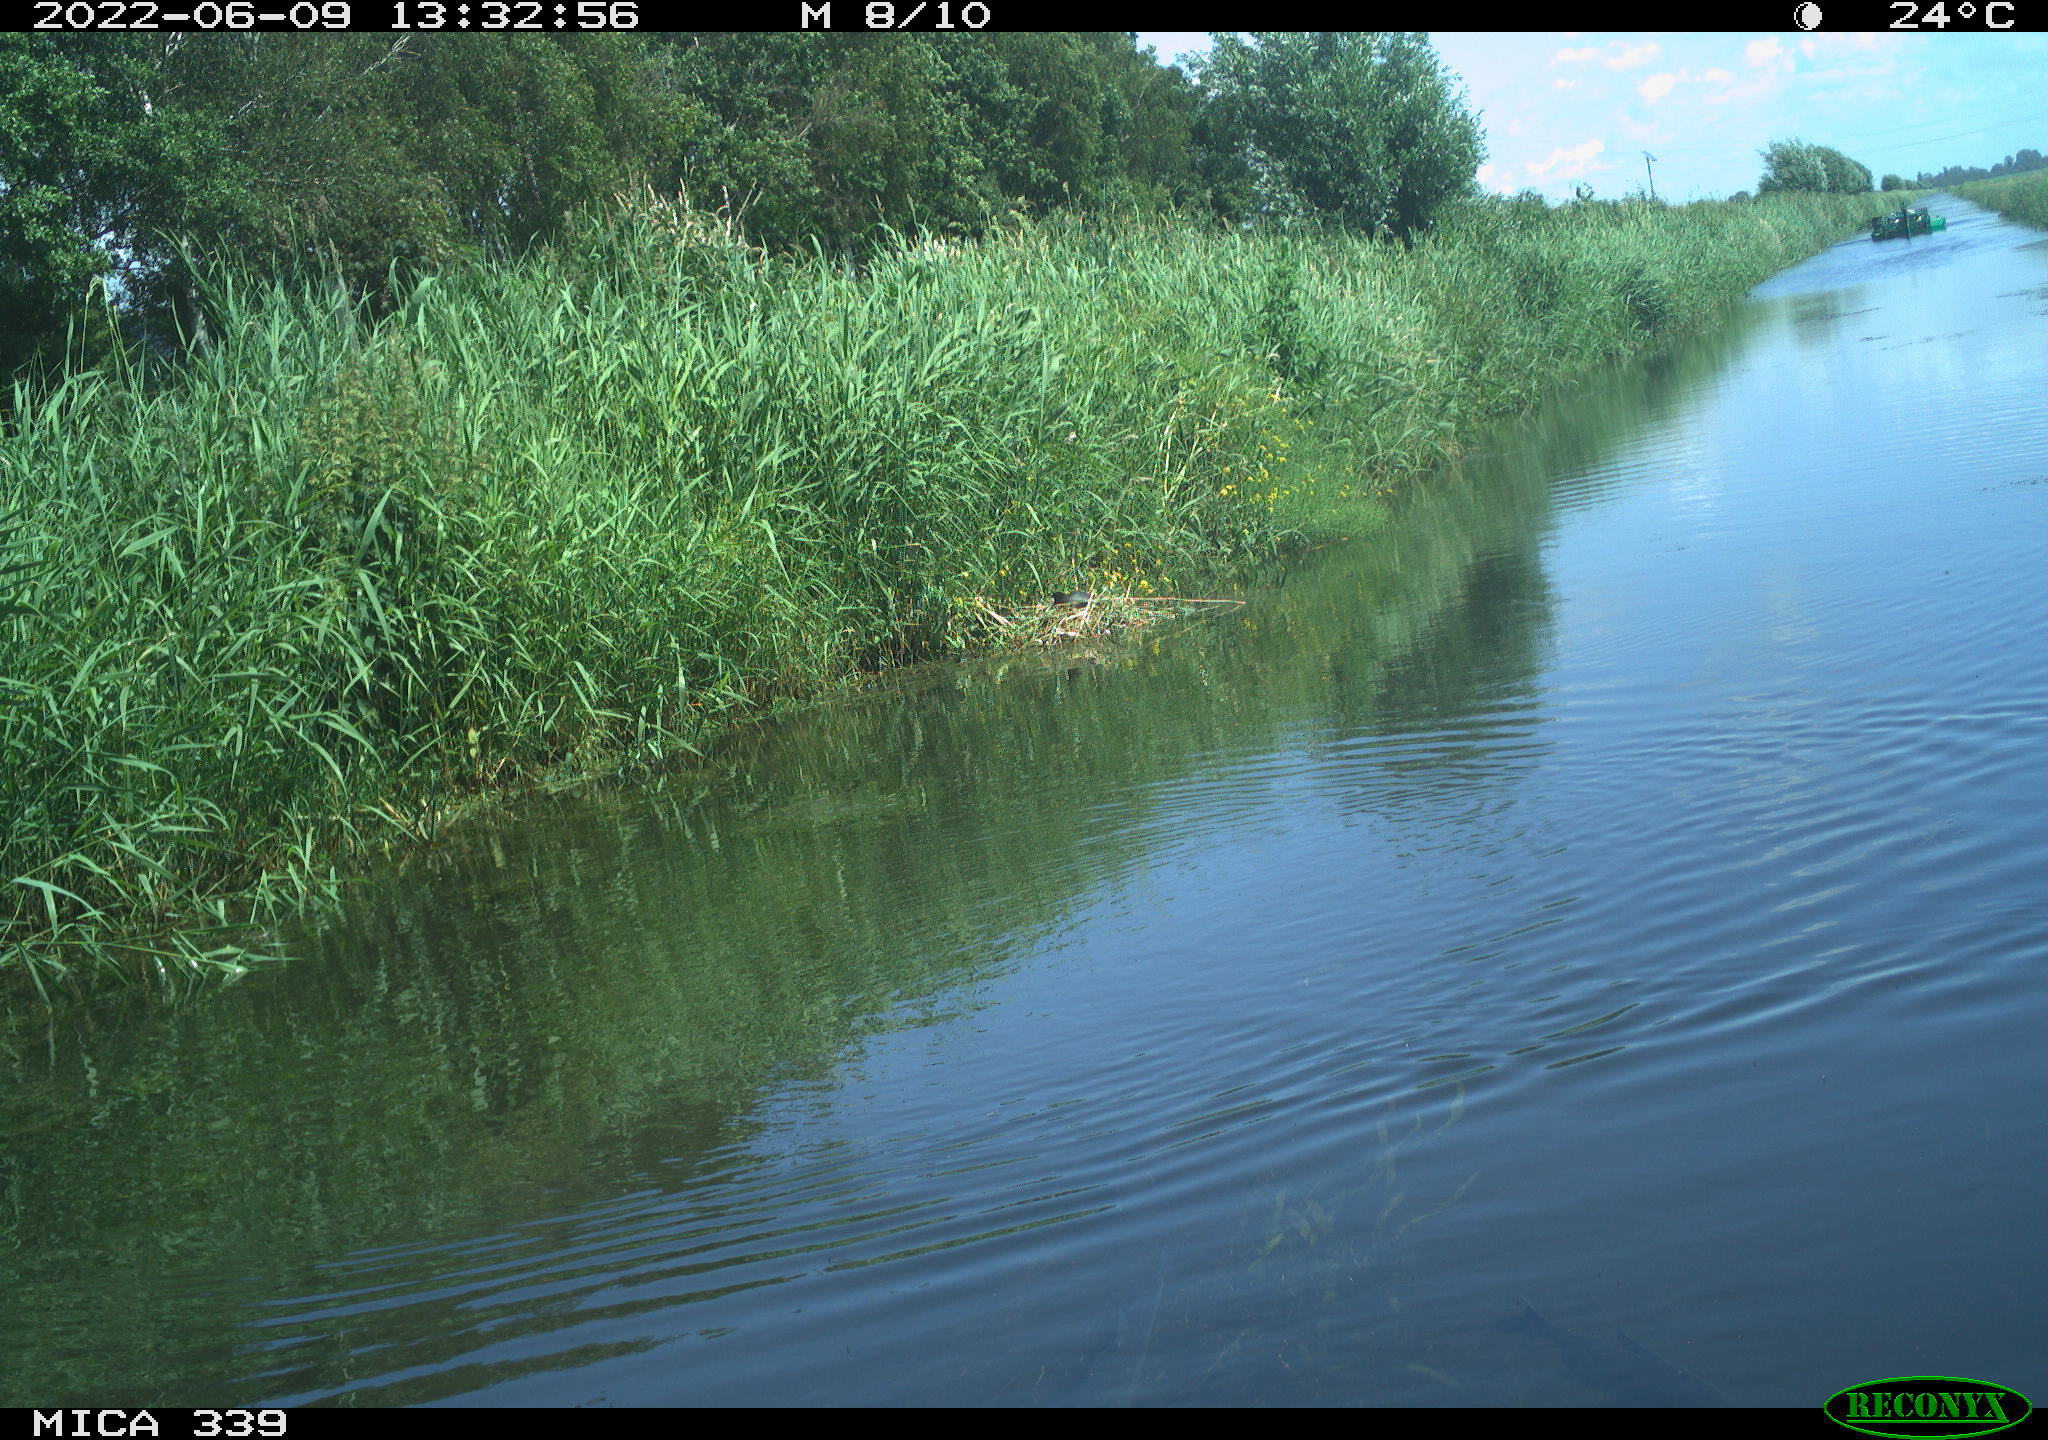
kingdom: Animalia
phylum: Chordata
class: Aves
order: Gruiformes
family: Rallidae
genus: Fulica
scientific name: Fulica atra
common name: Eurasian coot
